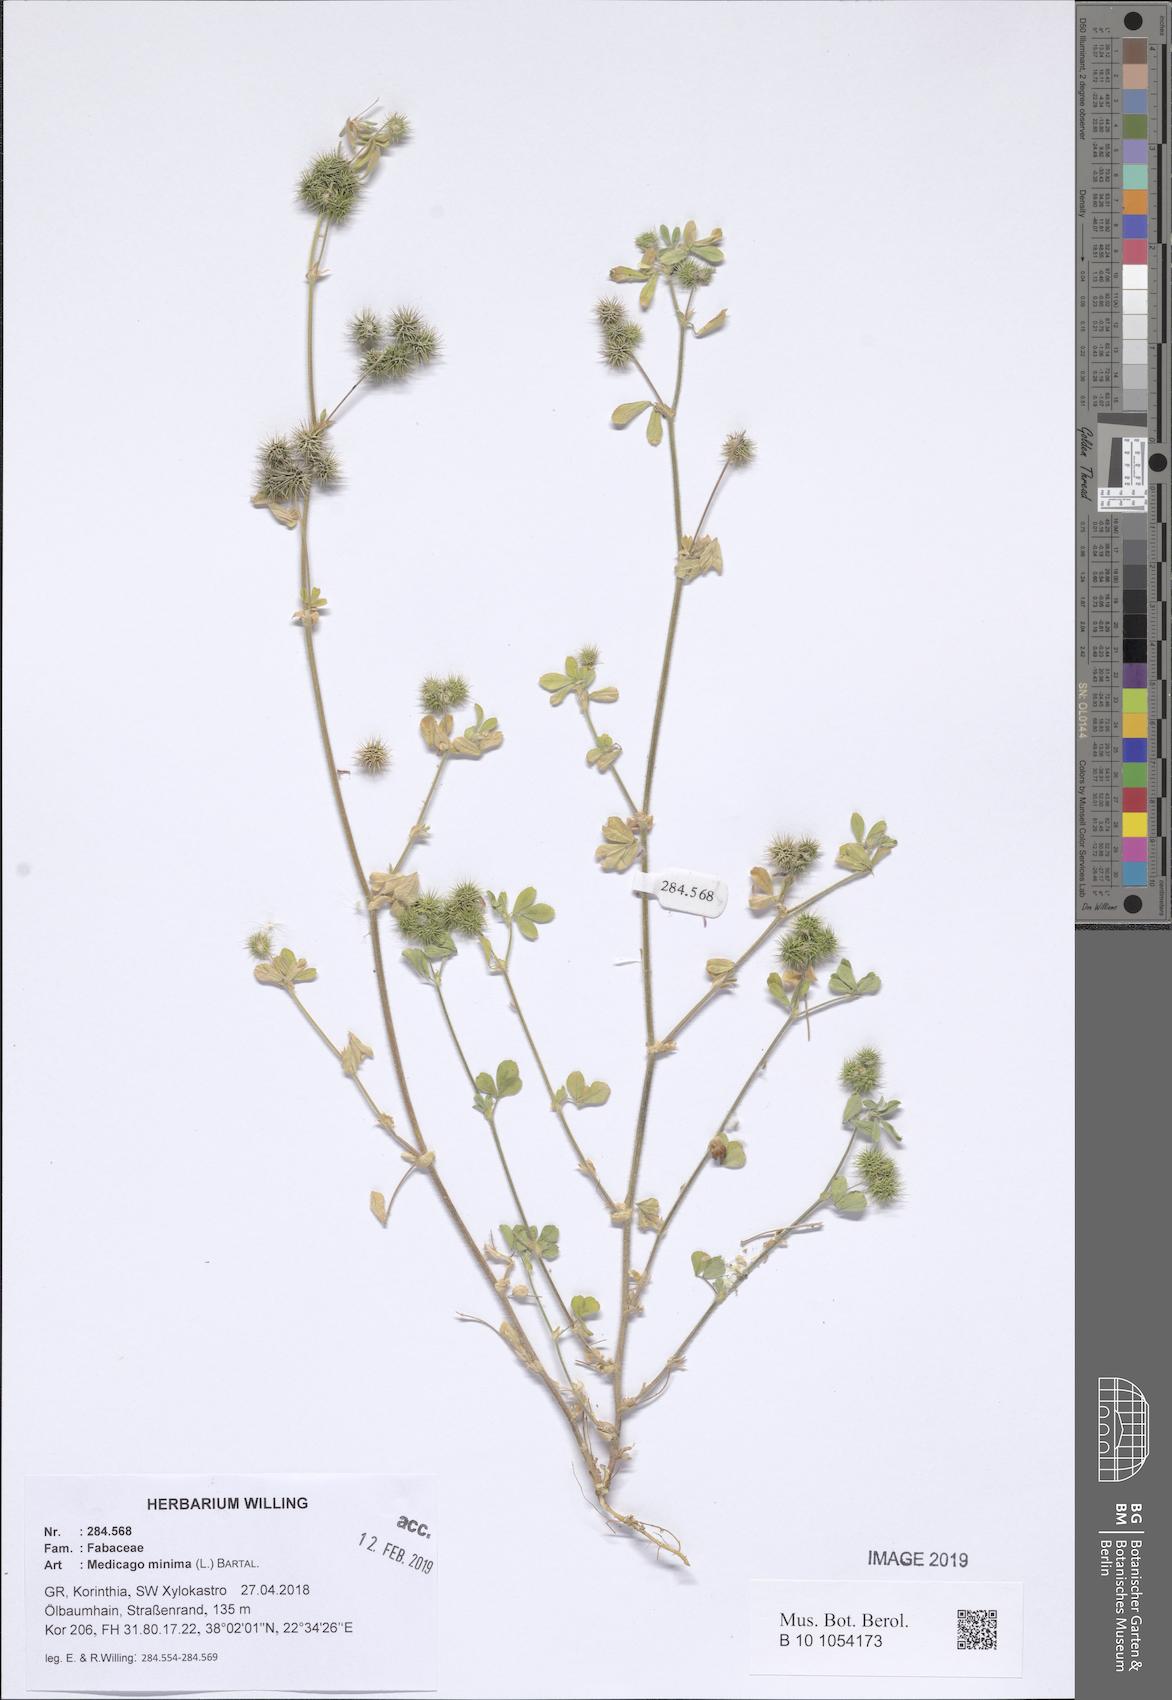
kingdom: Plantae
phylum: Tracheophyta
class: Magnoliopsida
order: Fabales
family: Fabaceae
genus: Medicago
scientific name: Medicago minima
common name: Little bur-clover
